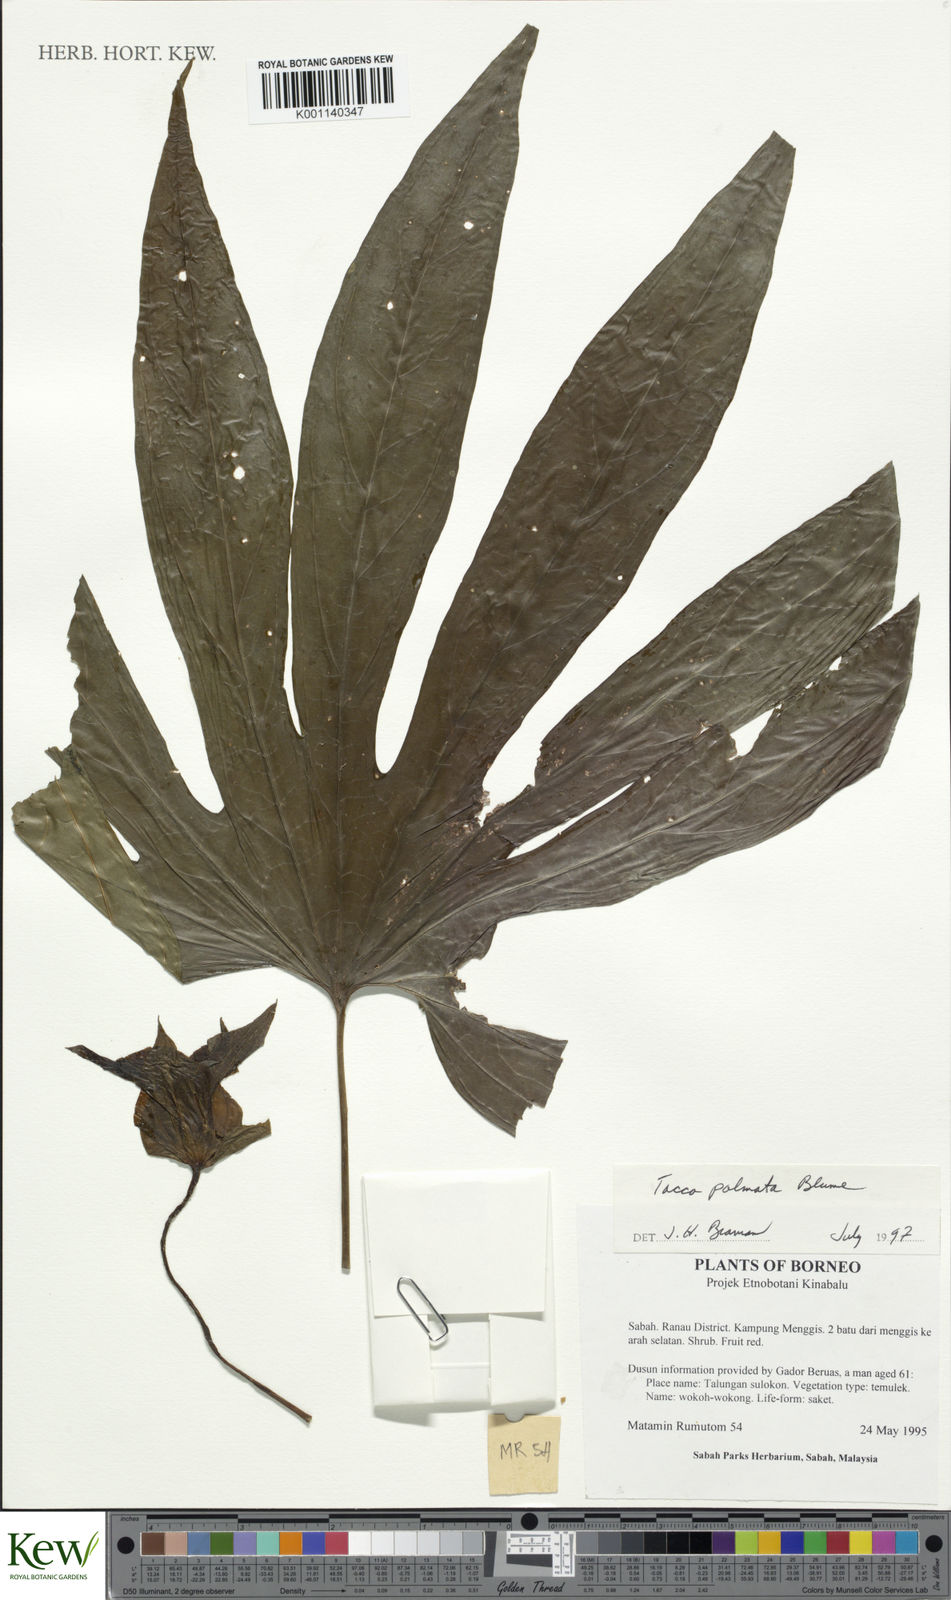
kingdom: Plantae
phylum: Tracheophyta
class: Liliopsida
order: Dioscoreales
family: Dioscoreaceae
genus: Tacca
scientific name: Tacca palmata
